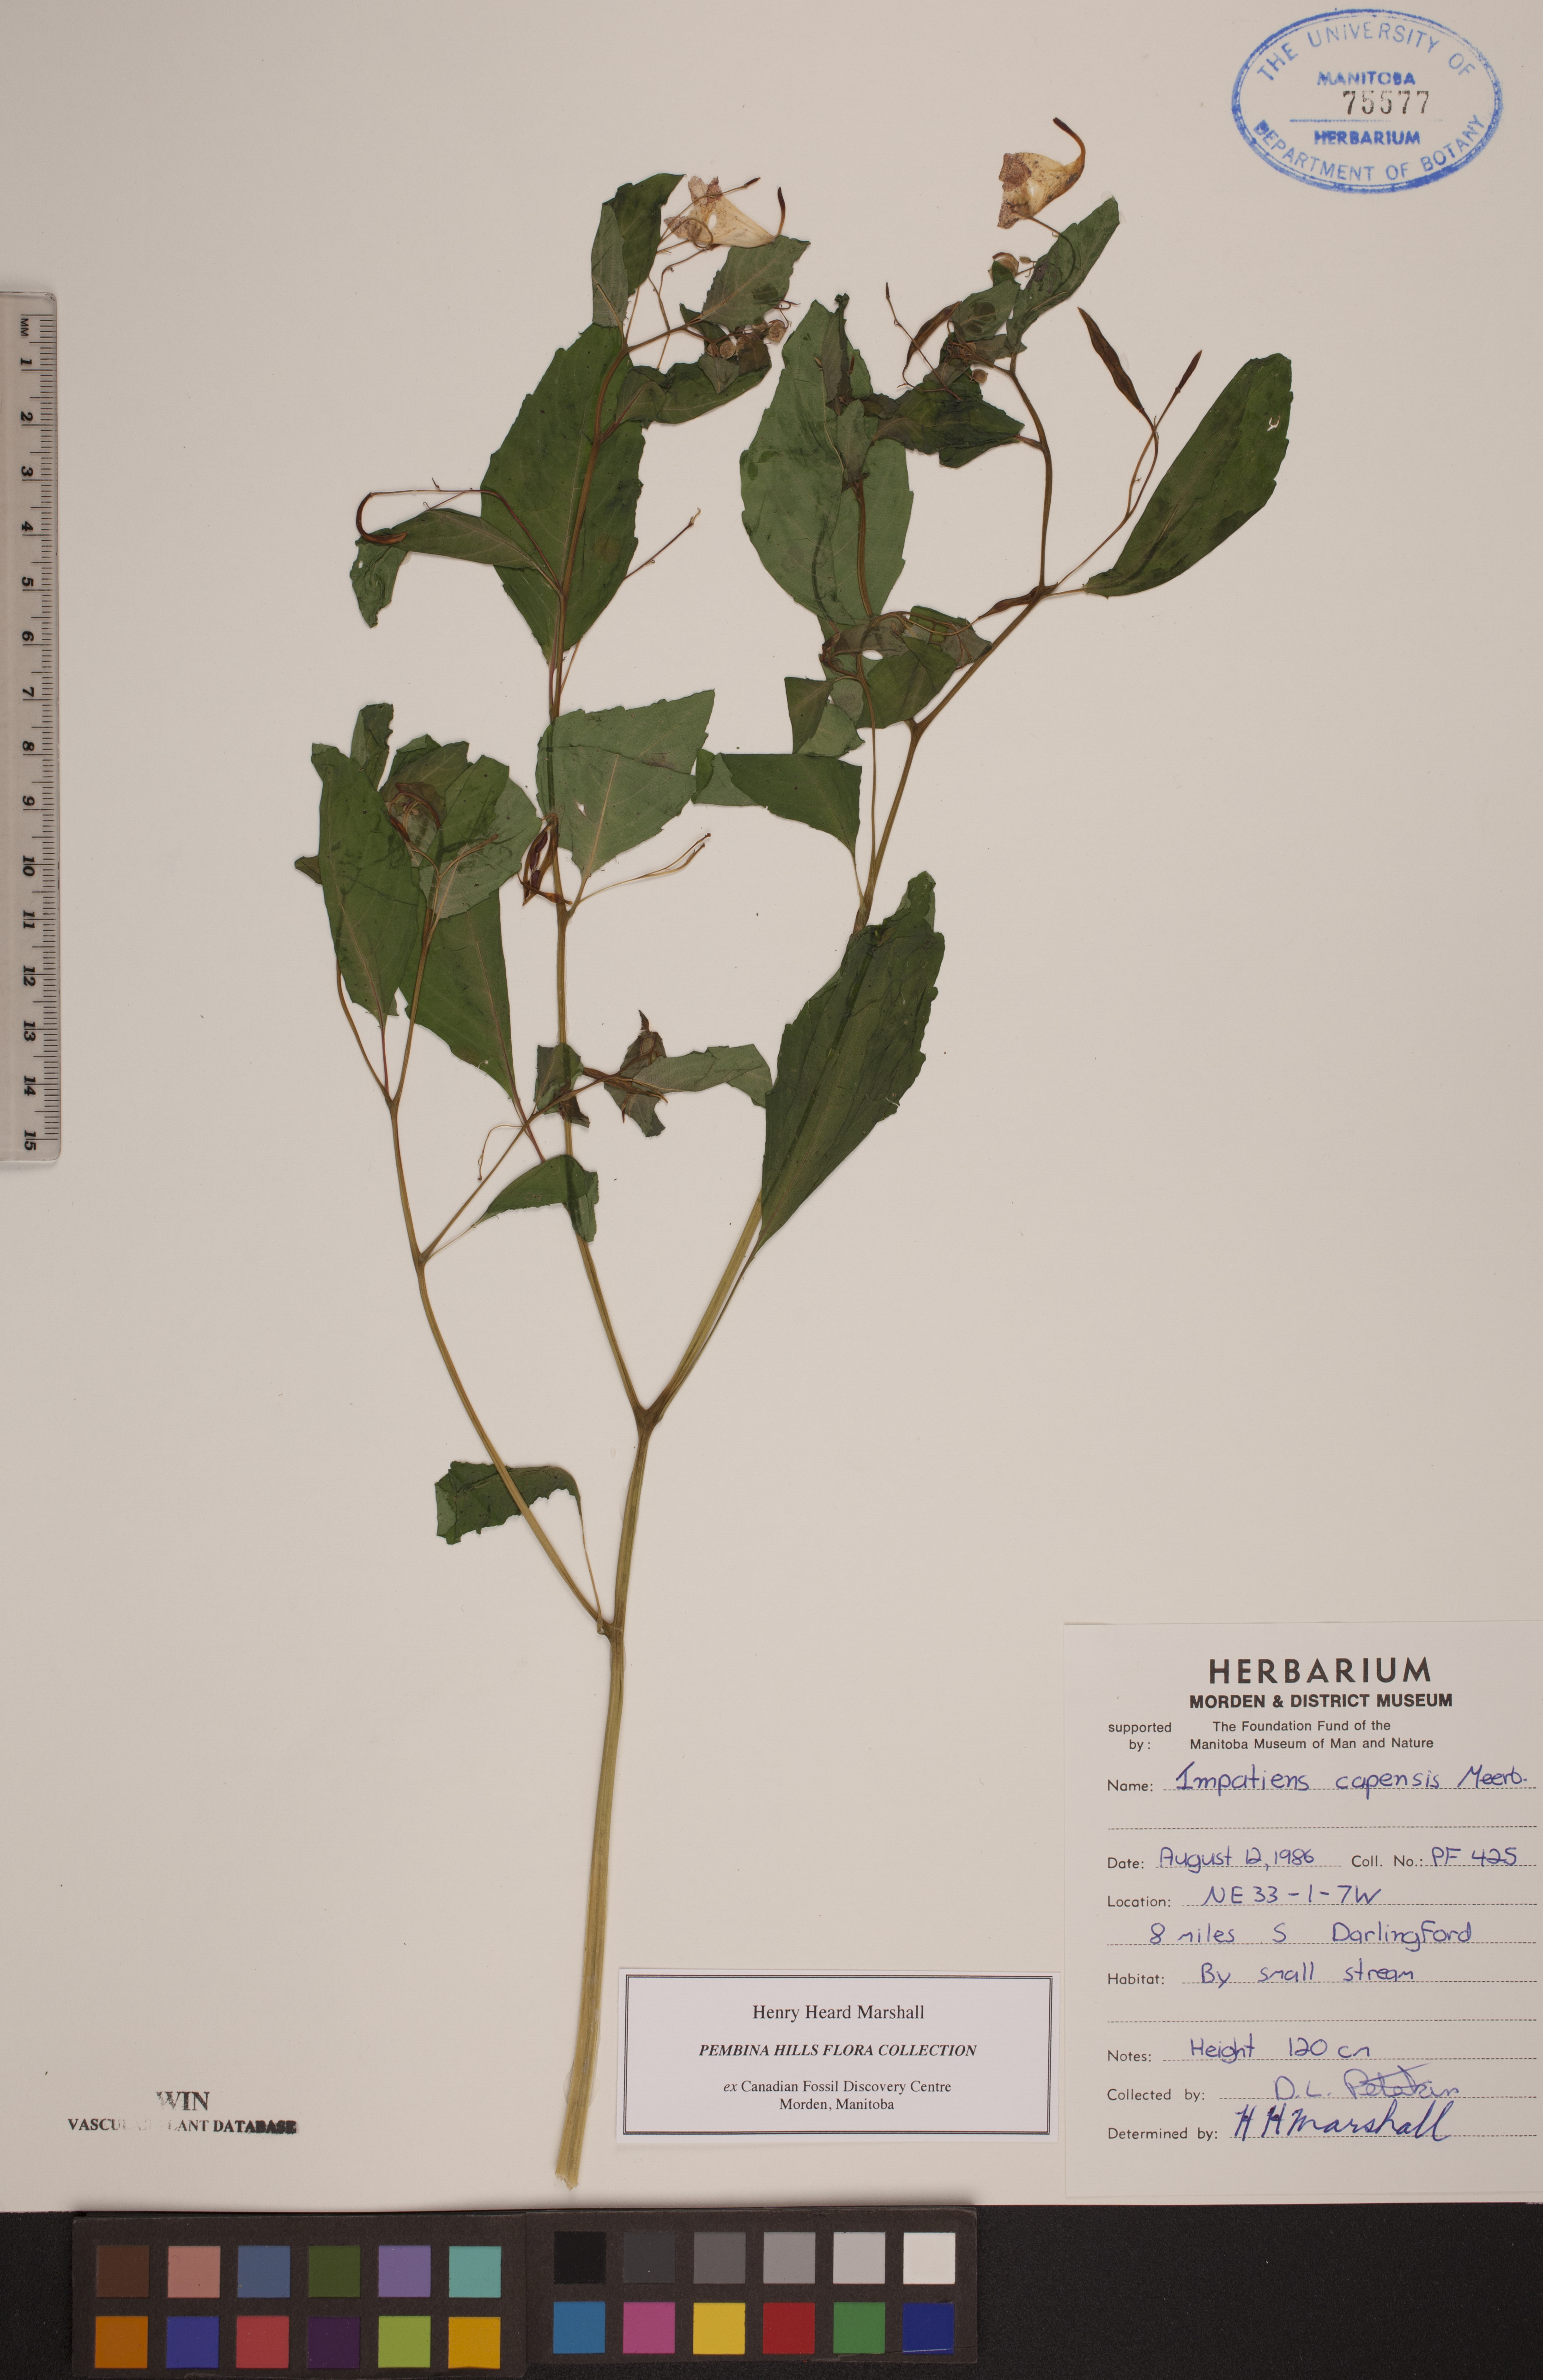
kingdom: Plantae
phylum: Tracheophyta
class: Magnoliopsida
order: Ericales
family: Balsaminaceae
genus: Impatiens
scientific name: Impatiens capensis
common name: Orange balsam
